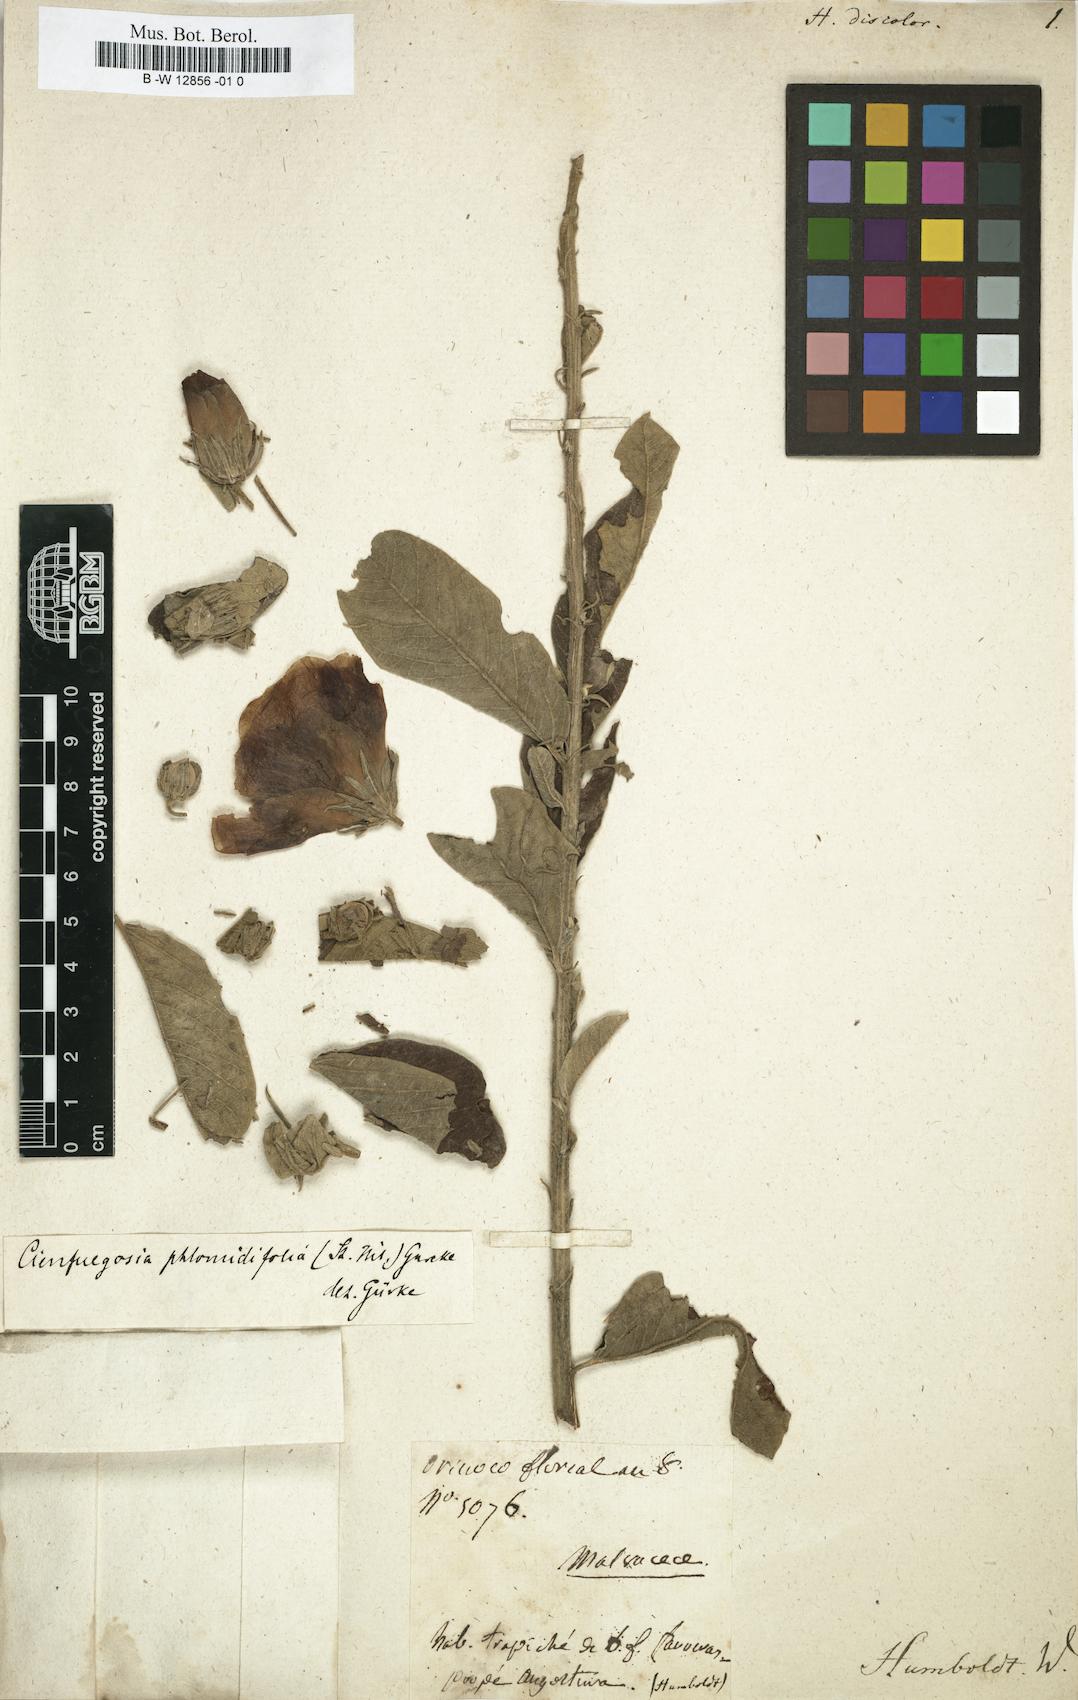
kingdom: Plantae
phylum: Tracheophyta
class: Magnoliopsida
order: Malvales
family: Malvaceae
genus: Hibiscus
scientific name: Hibiscus
